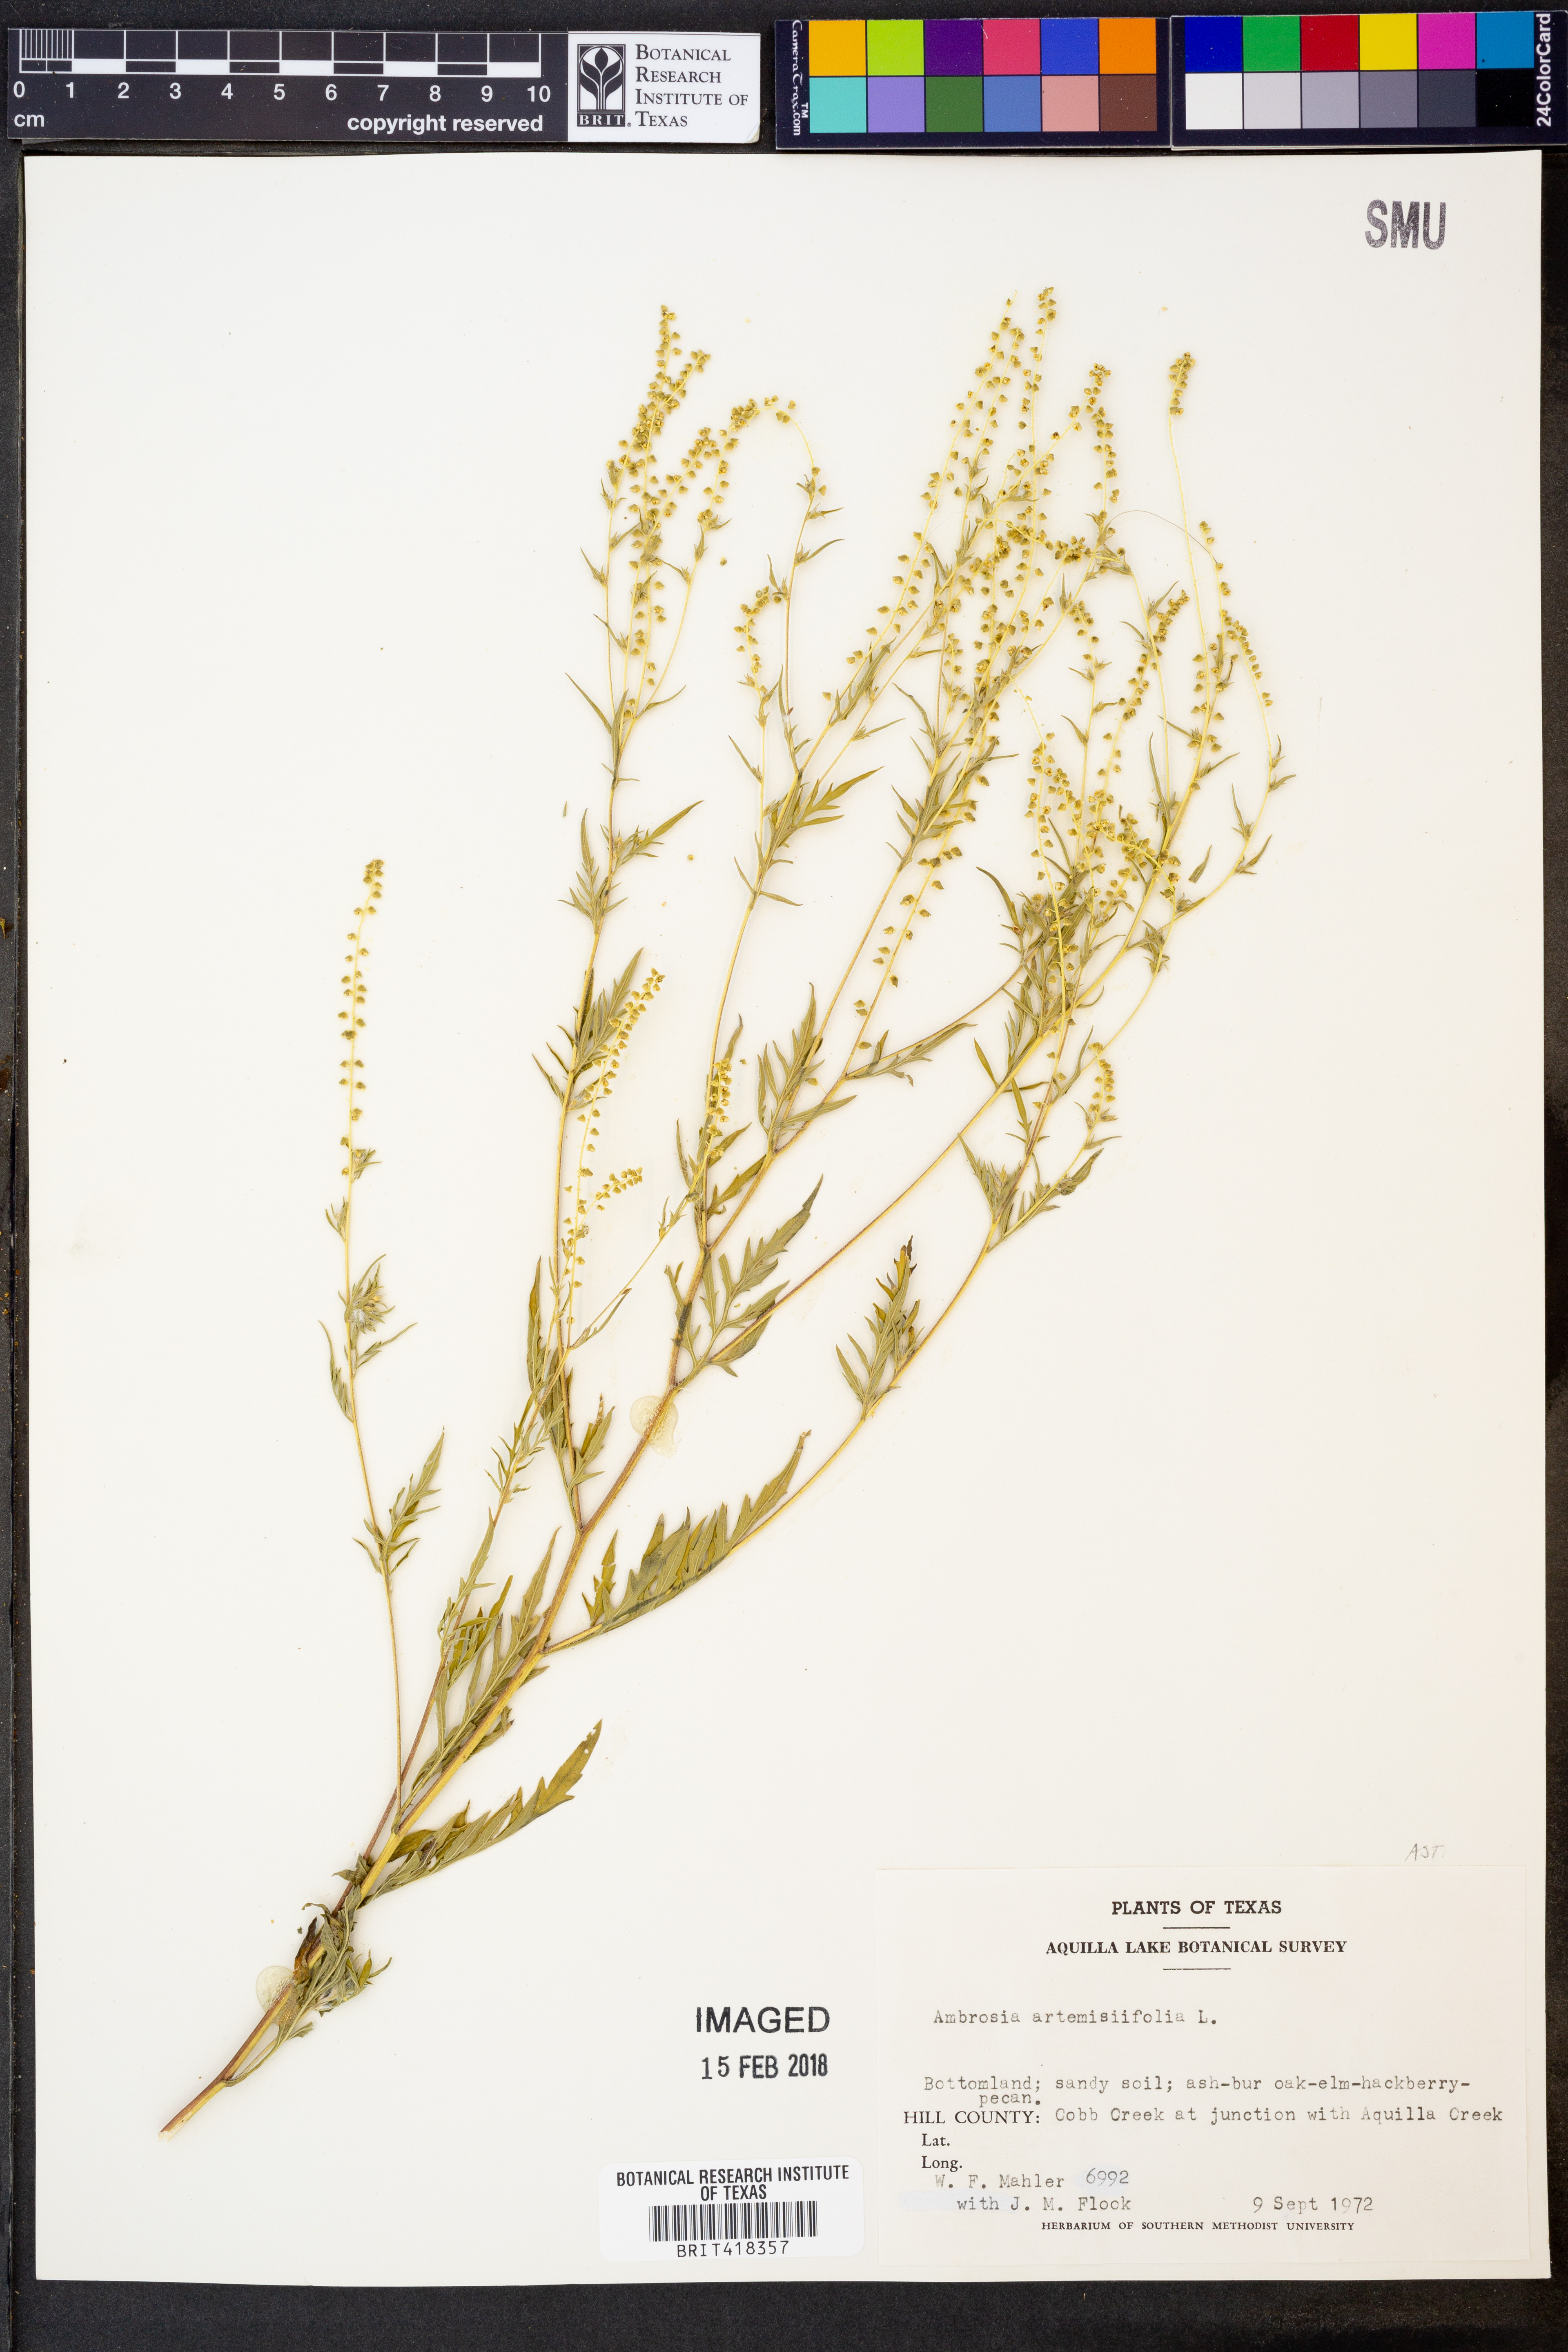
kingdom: Plantae
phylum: Tracheophyta
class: Magnoliopsida
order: Asterales
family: Asteraceae
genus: Ambrosia
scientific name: Ambrosia artemisiifolia
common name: Annual ragweed
